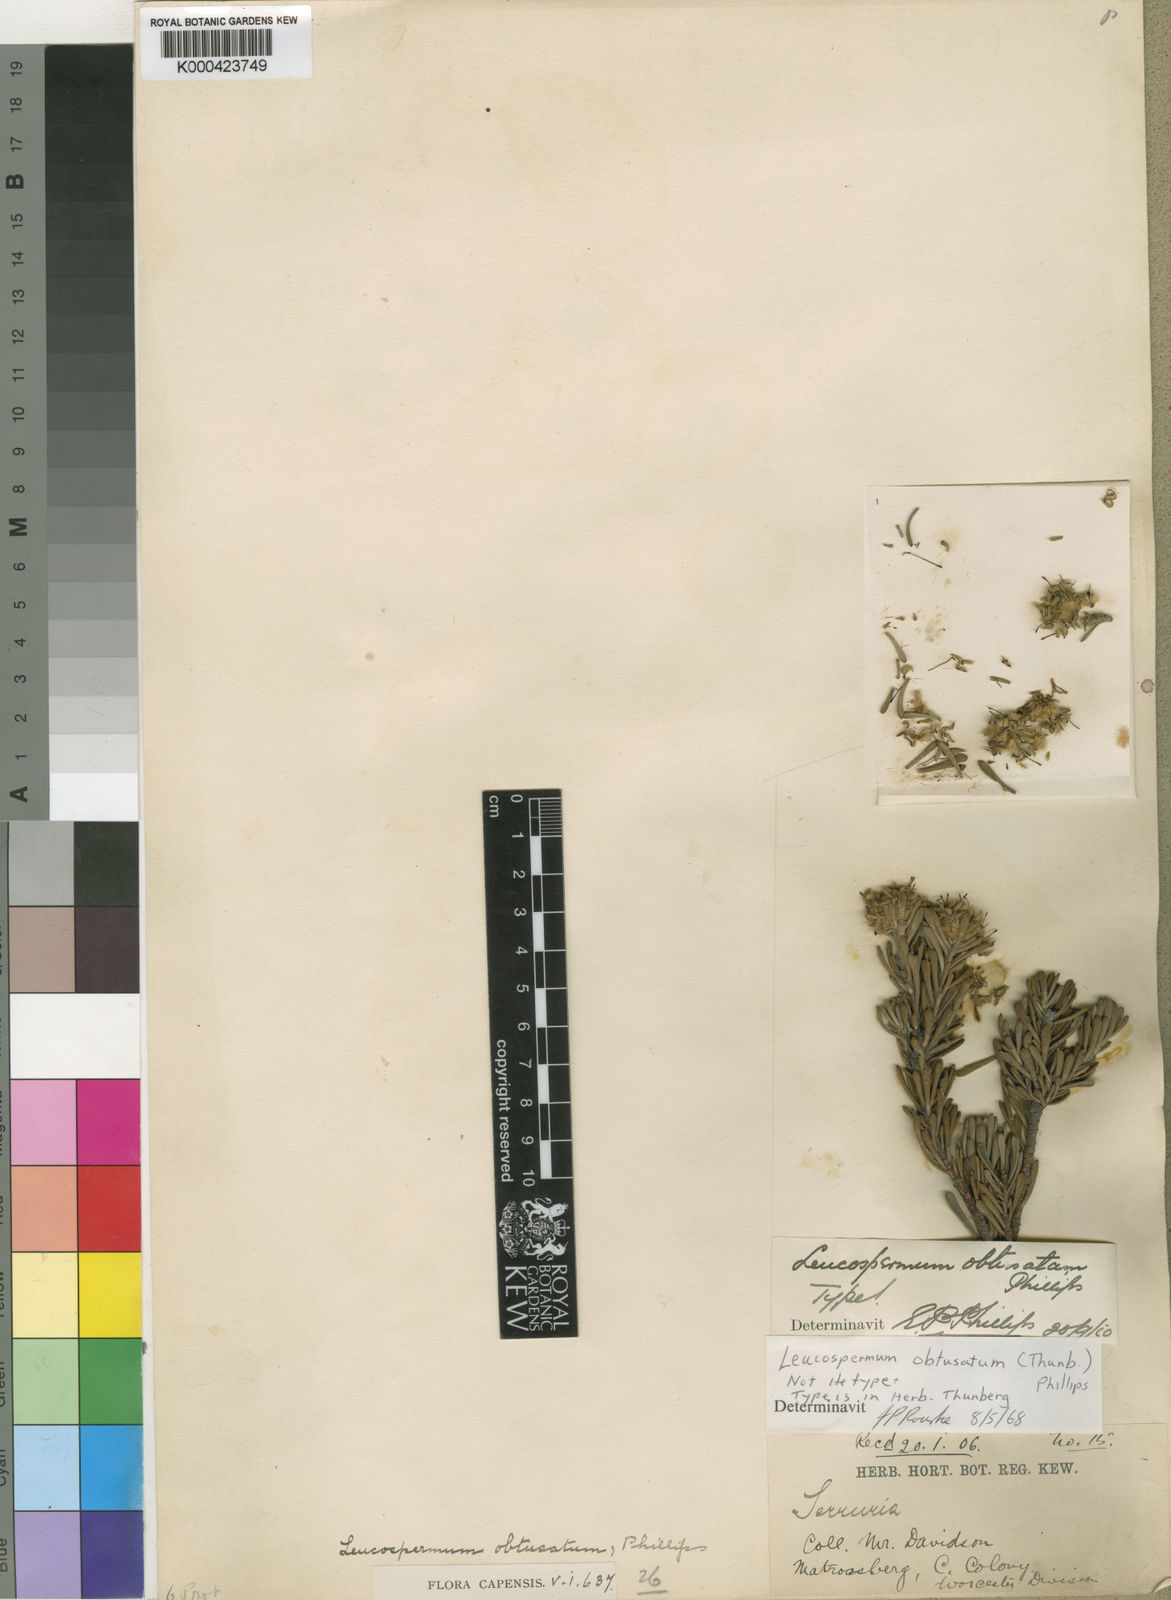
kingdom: Plantae
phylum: Tracheophyta
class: Magnoliopsida
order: Proteales
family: Proteaceae
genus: Vexatorella
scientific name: Vexatorella obtusata
